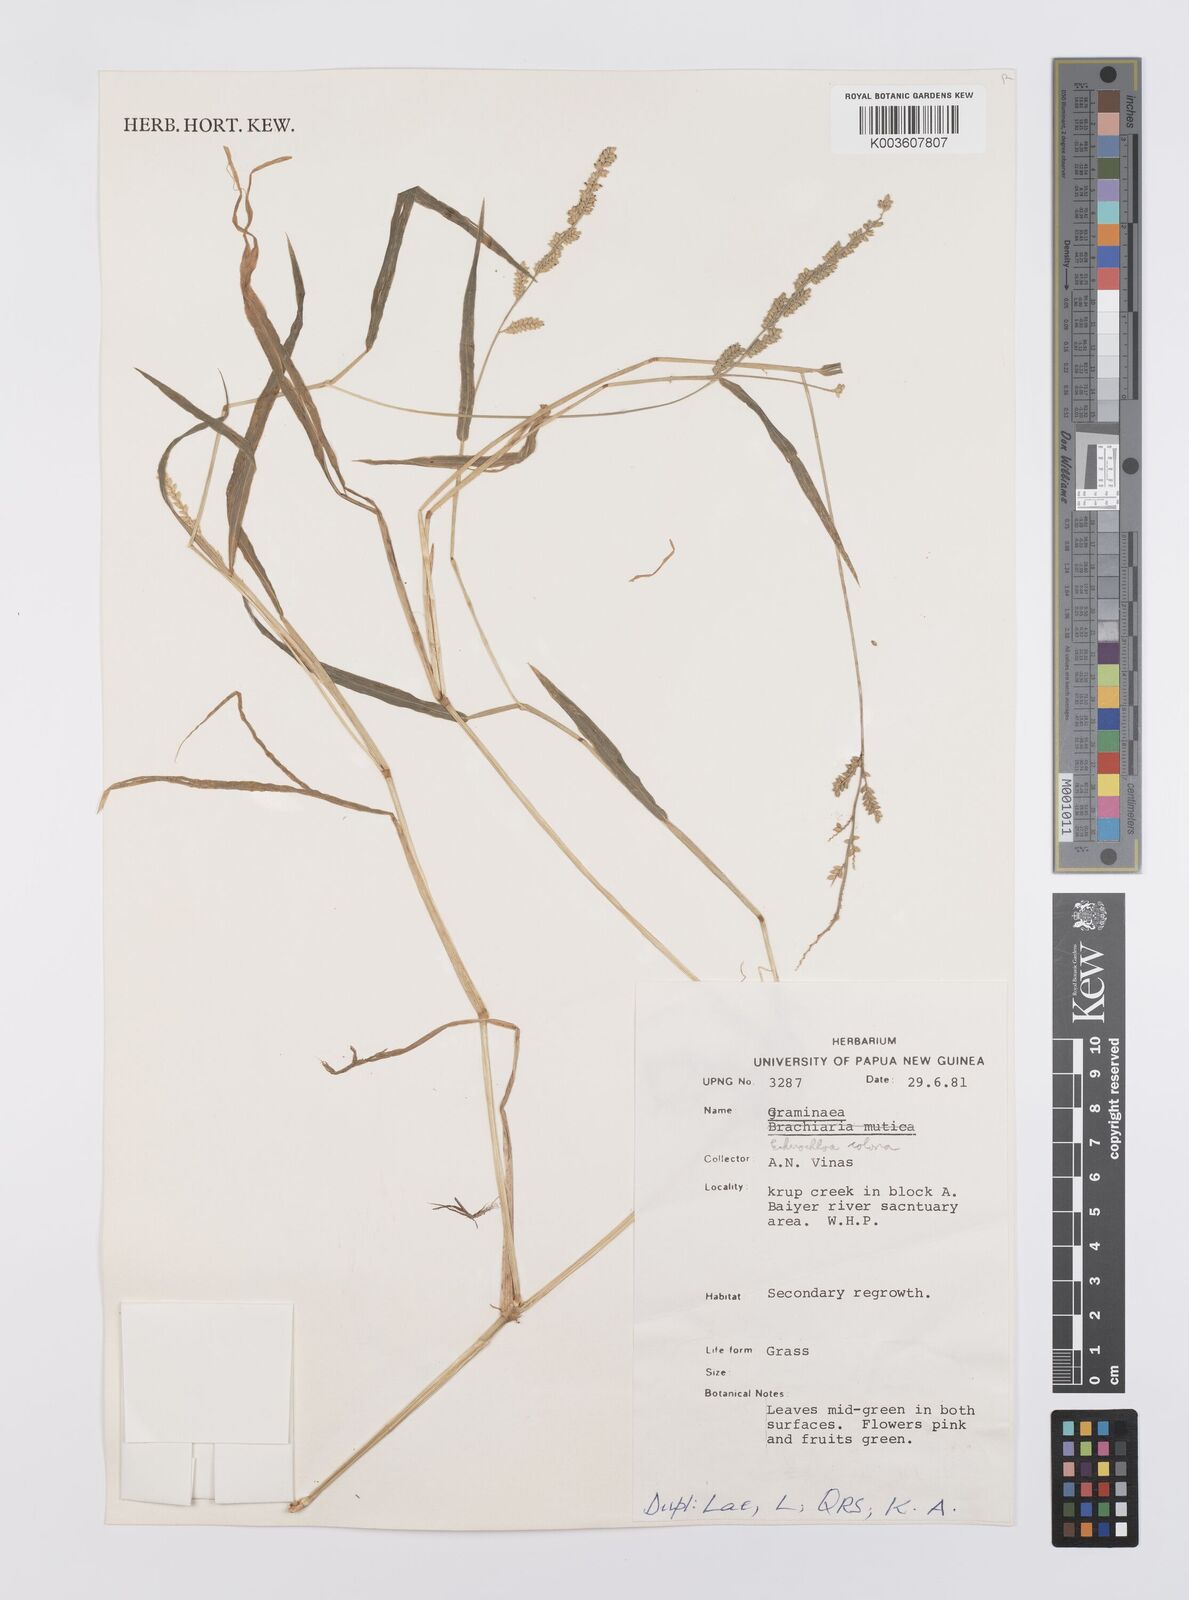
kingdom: Plantae
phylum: Tracheophyta
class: Liliopsida
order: Poales
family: Poaceae
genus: Echinochloa
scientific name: Echinochloa colonum
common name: Jungle rice
